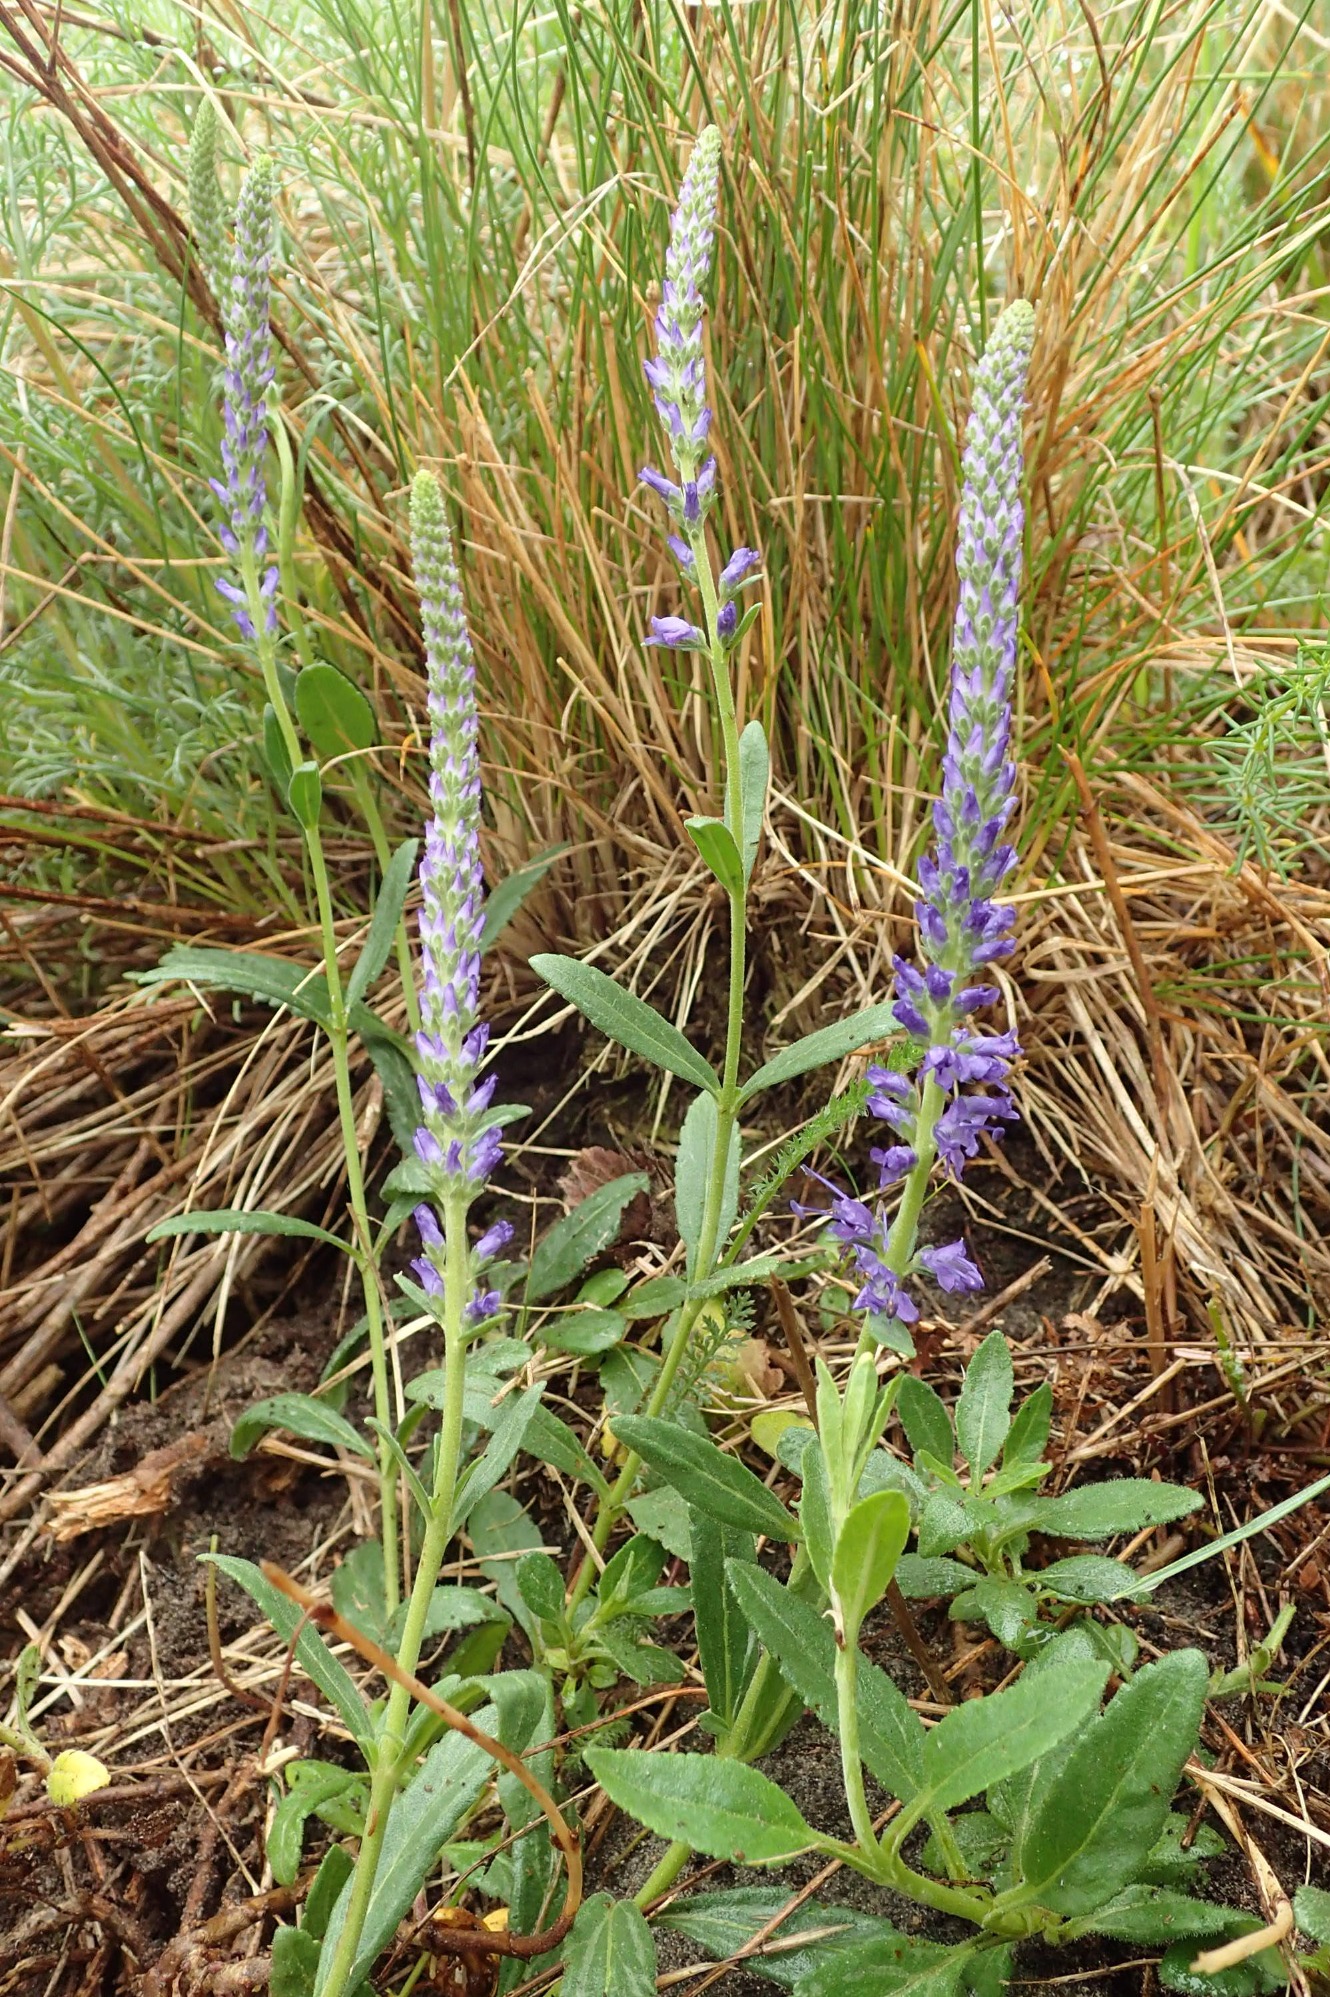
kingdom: Plantae
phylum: Tracheophyta
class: Magnoliopsida
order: Lamiales
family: Plantaginaceae
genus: Veronica
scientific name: Veronica spicata
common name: Aks-ærenpris
